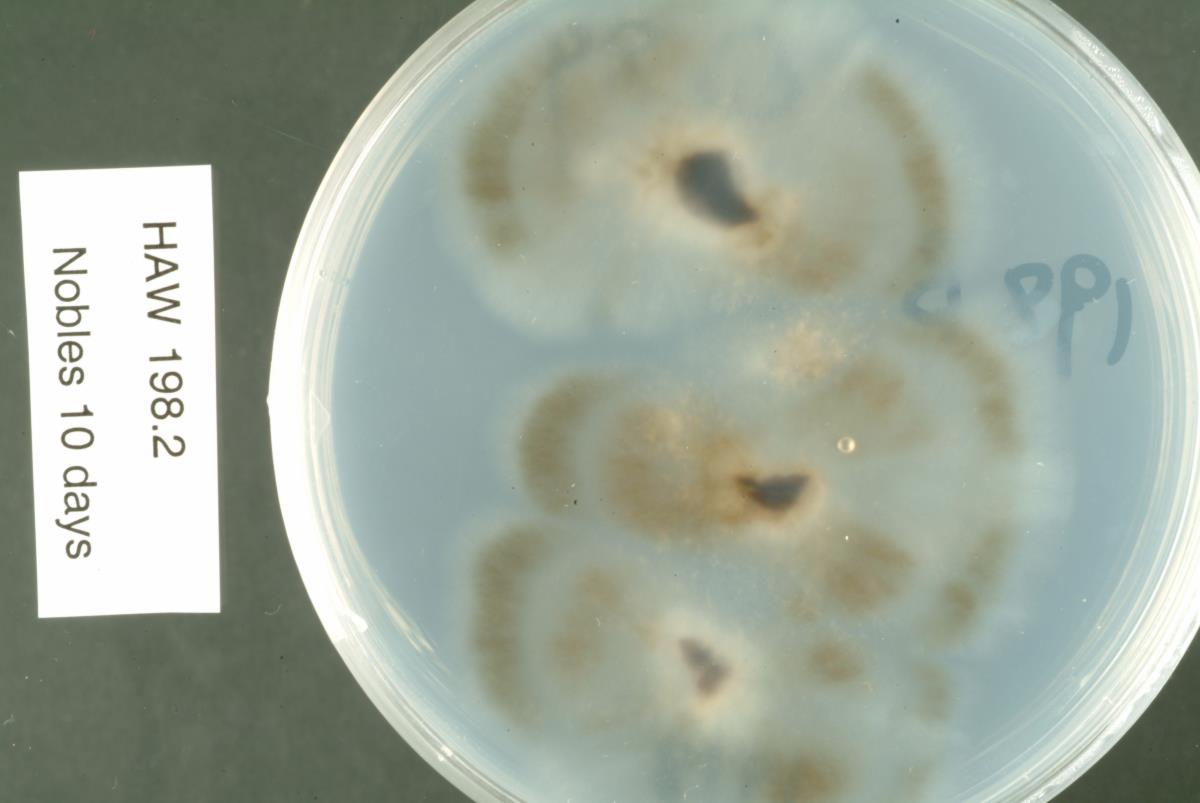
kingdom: Fungi
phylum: Ascomycota
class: Leotiomycetes
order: Helotiales
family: Sclerotiniaceae
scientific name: Sclerotiniaceae
